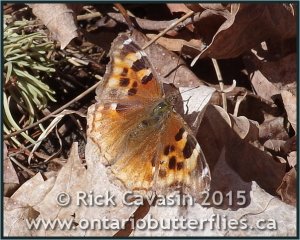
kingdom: Animalia
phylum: Arthropoda
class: Insecta
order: Lepidoptera
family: Nymphalidae
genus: Polygonia
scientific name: Polygonia vaualbum
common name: Compton Tortoiseshell
